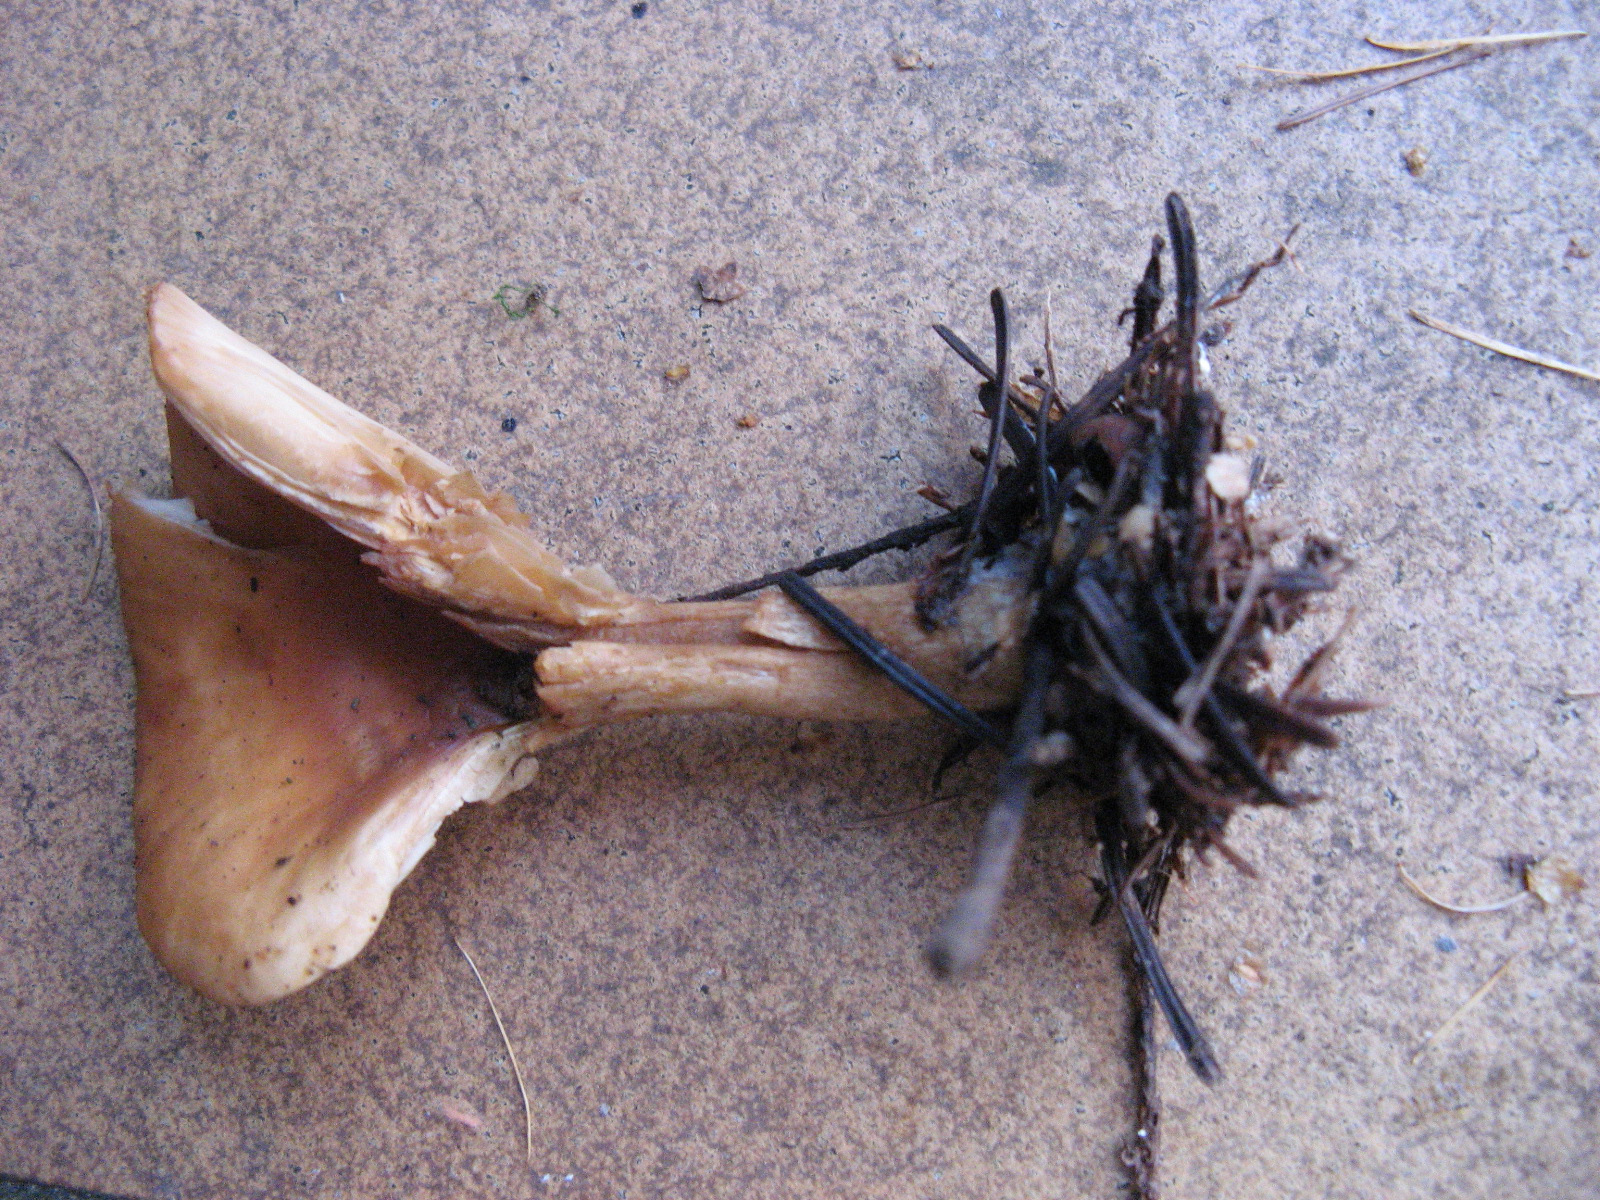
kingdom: Fungi
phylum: Basidiomycota
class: Agaricomycetes
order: Agaricales
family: Tricholomataceae
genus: Paralepista
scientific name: Paralepista flaccida
